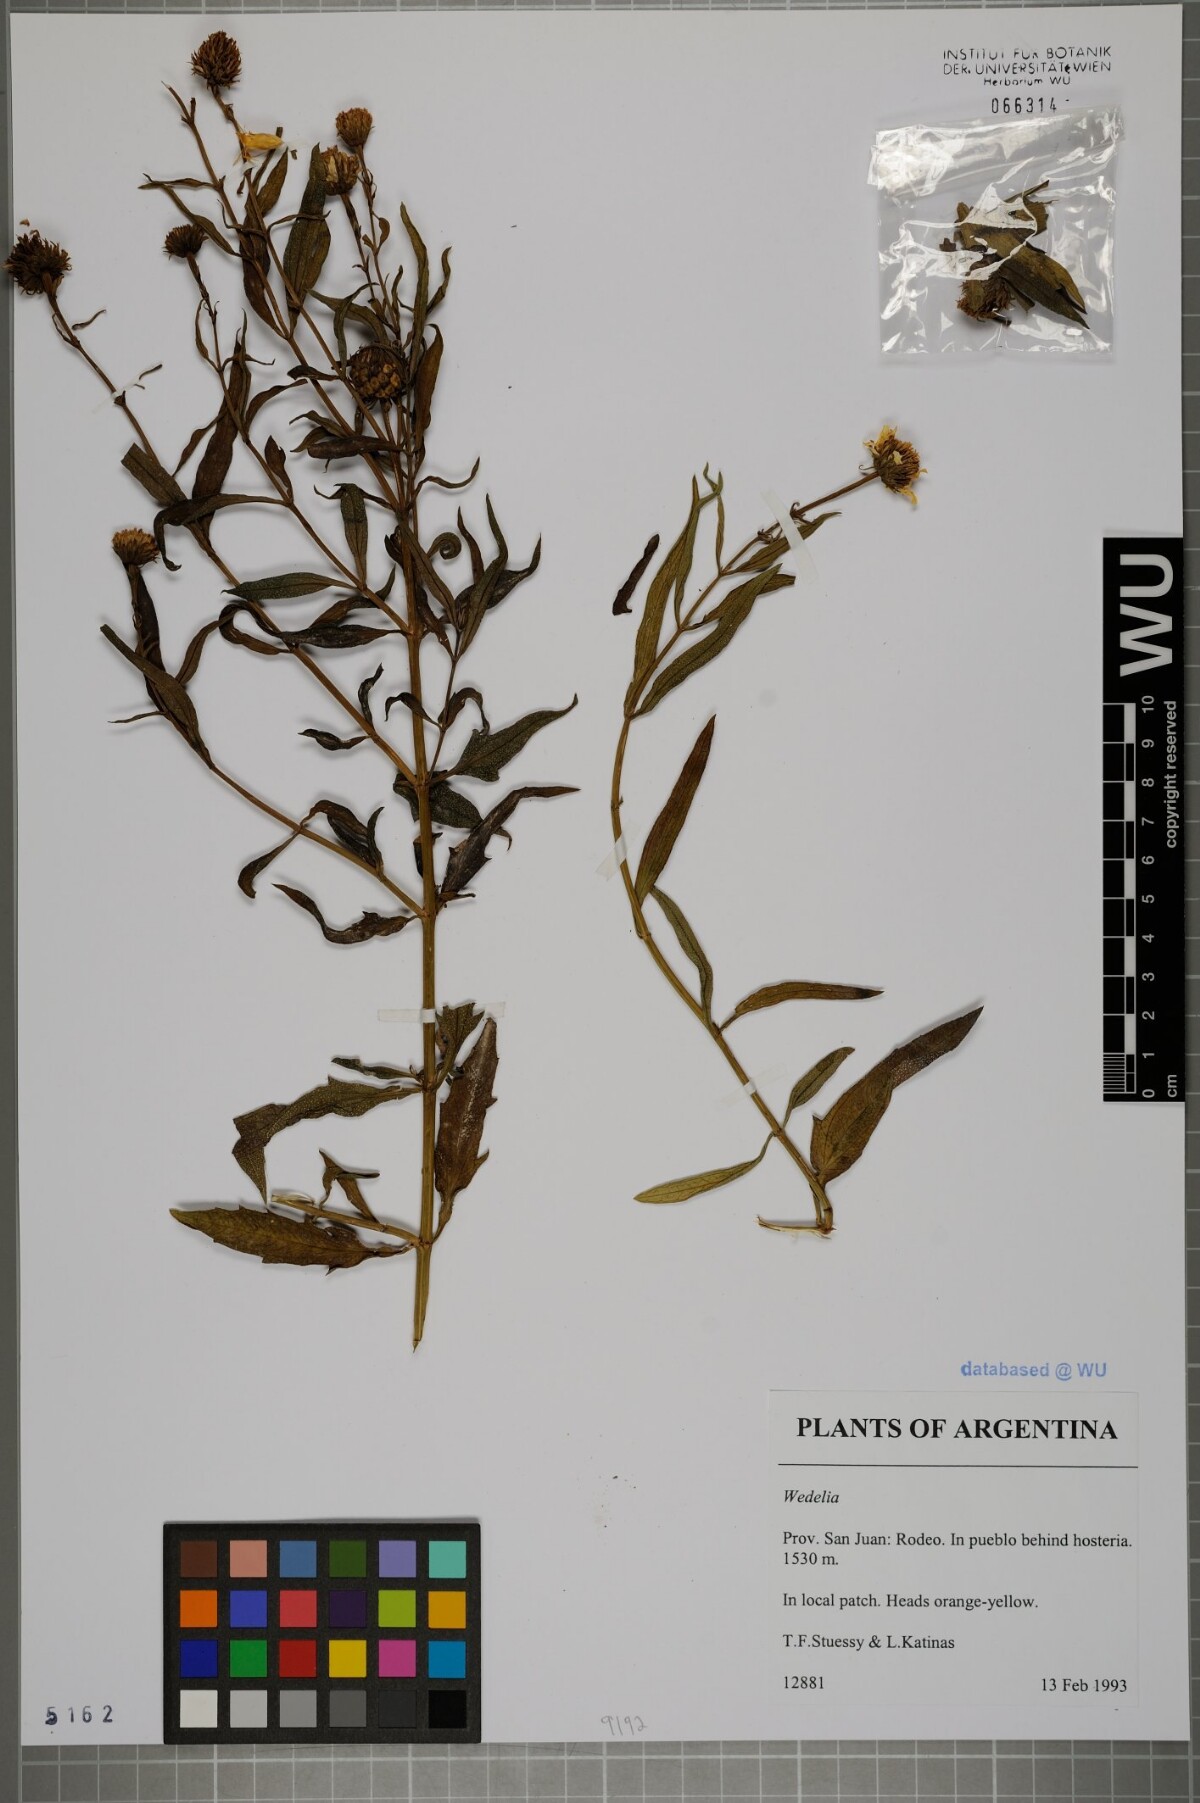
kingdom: Plantae
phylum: Tracheophyta
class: Magnoliopsida
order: Asterales
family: Asteraceae
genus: Wedelia
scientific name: Wedelia
